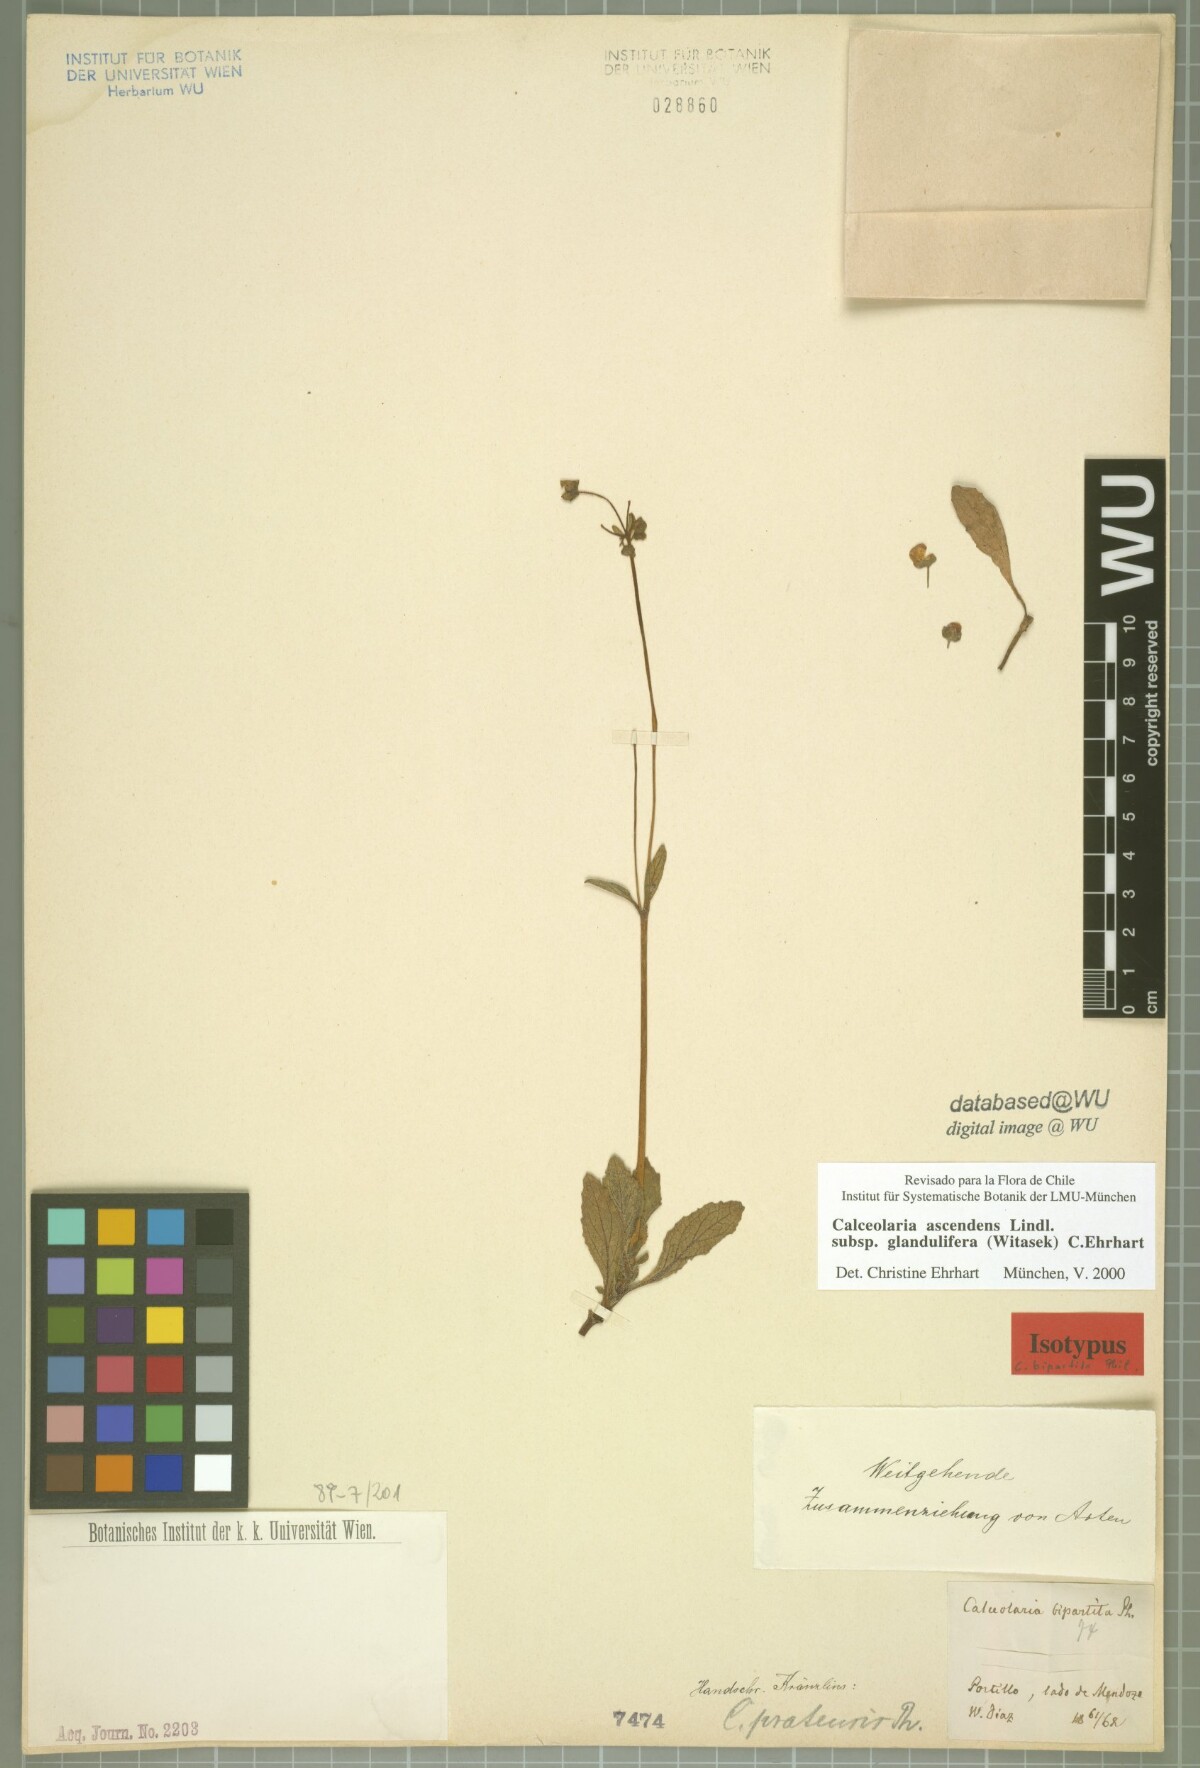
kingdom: Plantae
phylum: Tracheophyta
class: Magnoliopsida
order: Lamiales
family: Calceolariaceae
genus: Calceolaria
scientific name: Calceolaria ascendens
